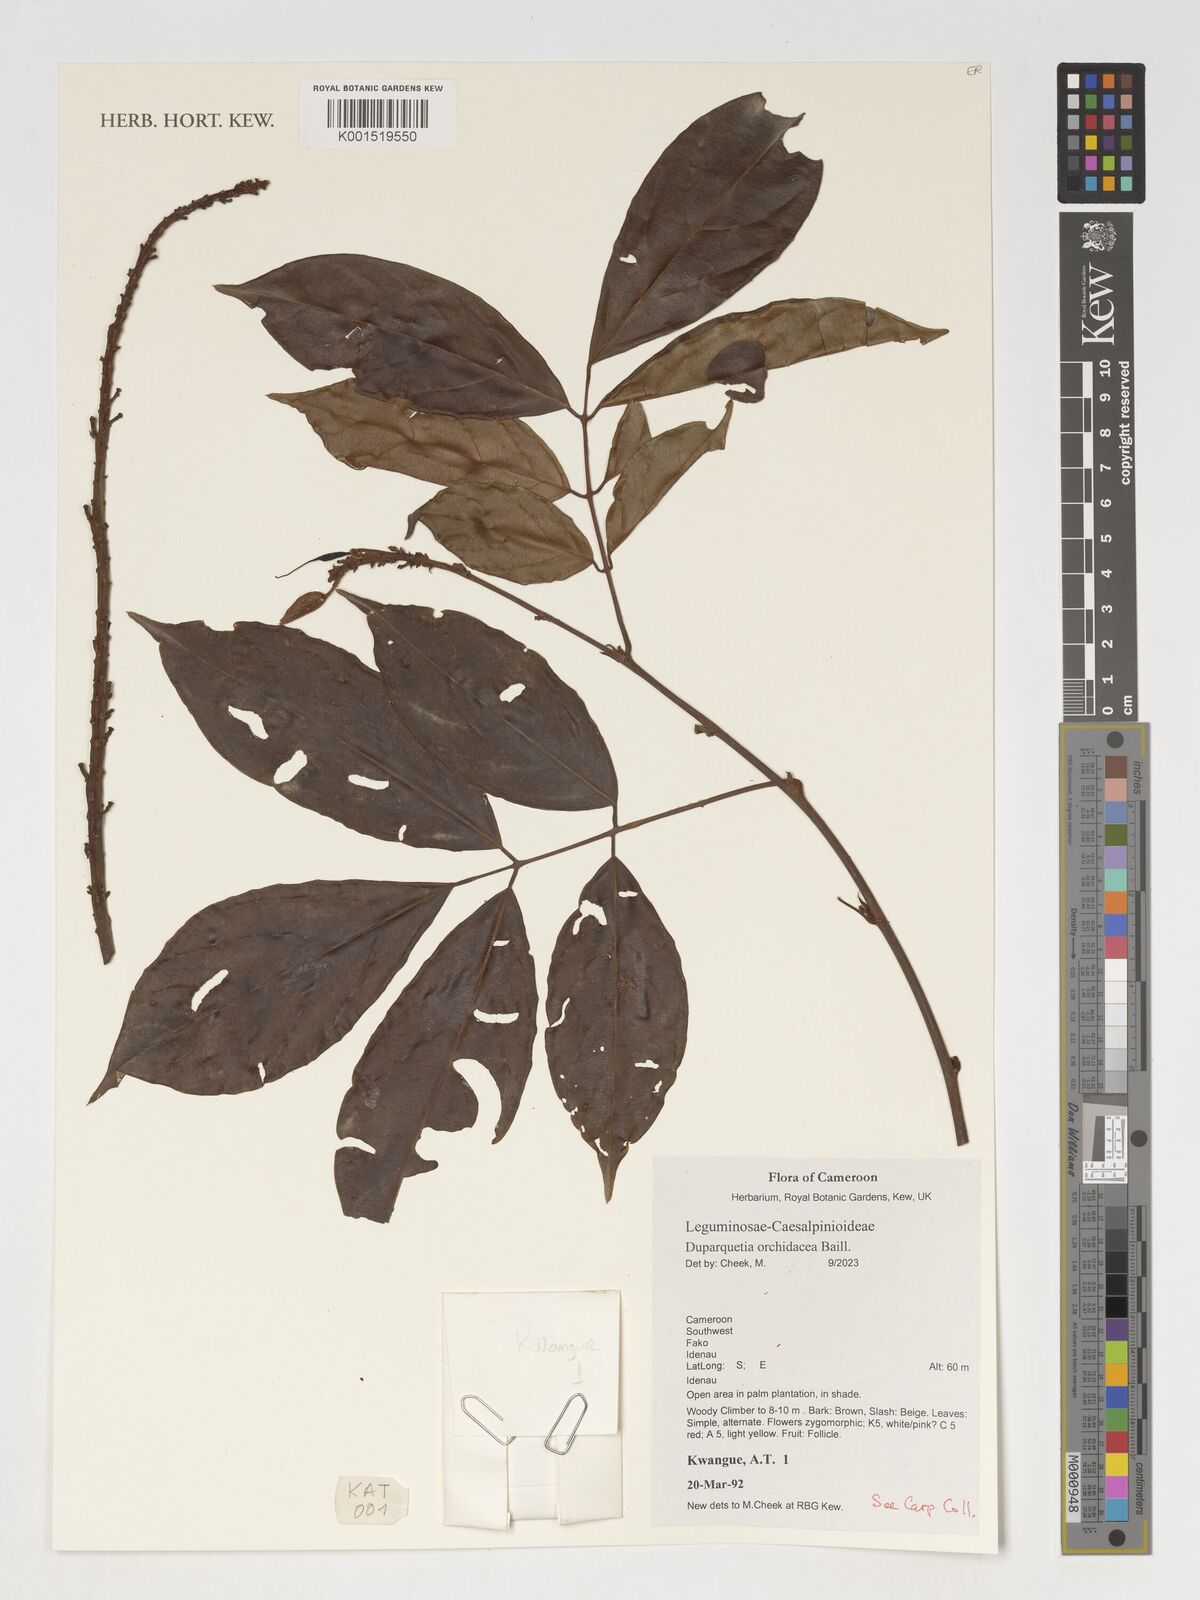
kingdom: Plantae
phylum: Tracheophyta
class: Magnoliopsida
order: Fabales
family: Fabaceae
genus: Duparquetia
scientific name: Duparquetia orchidacea
